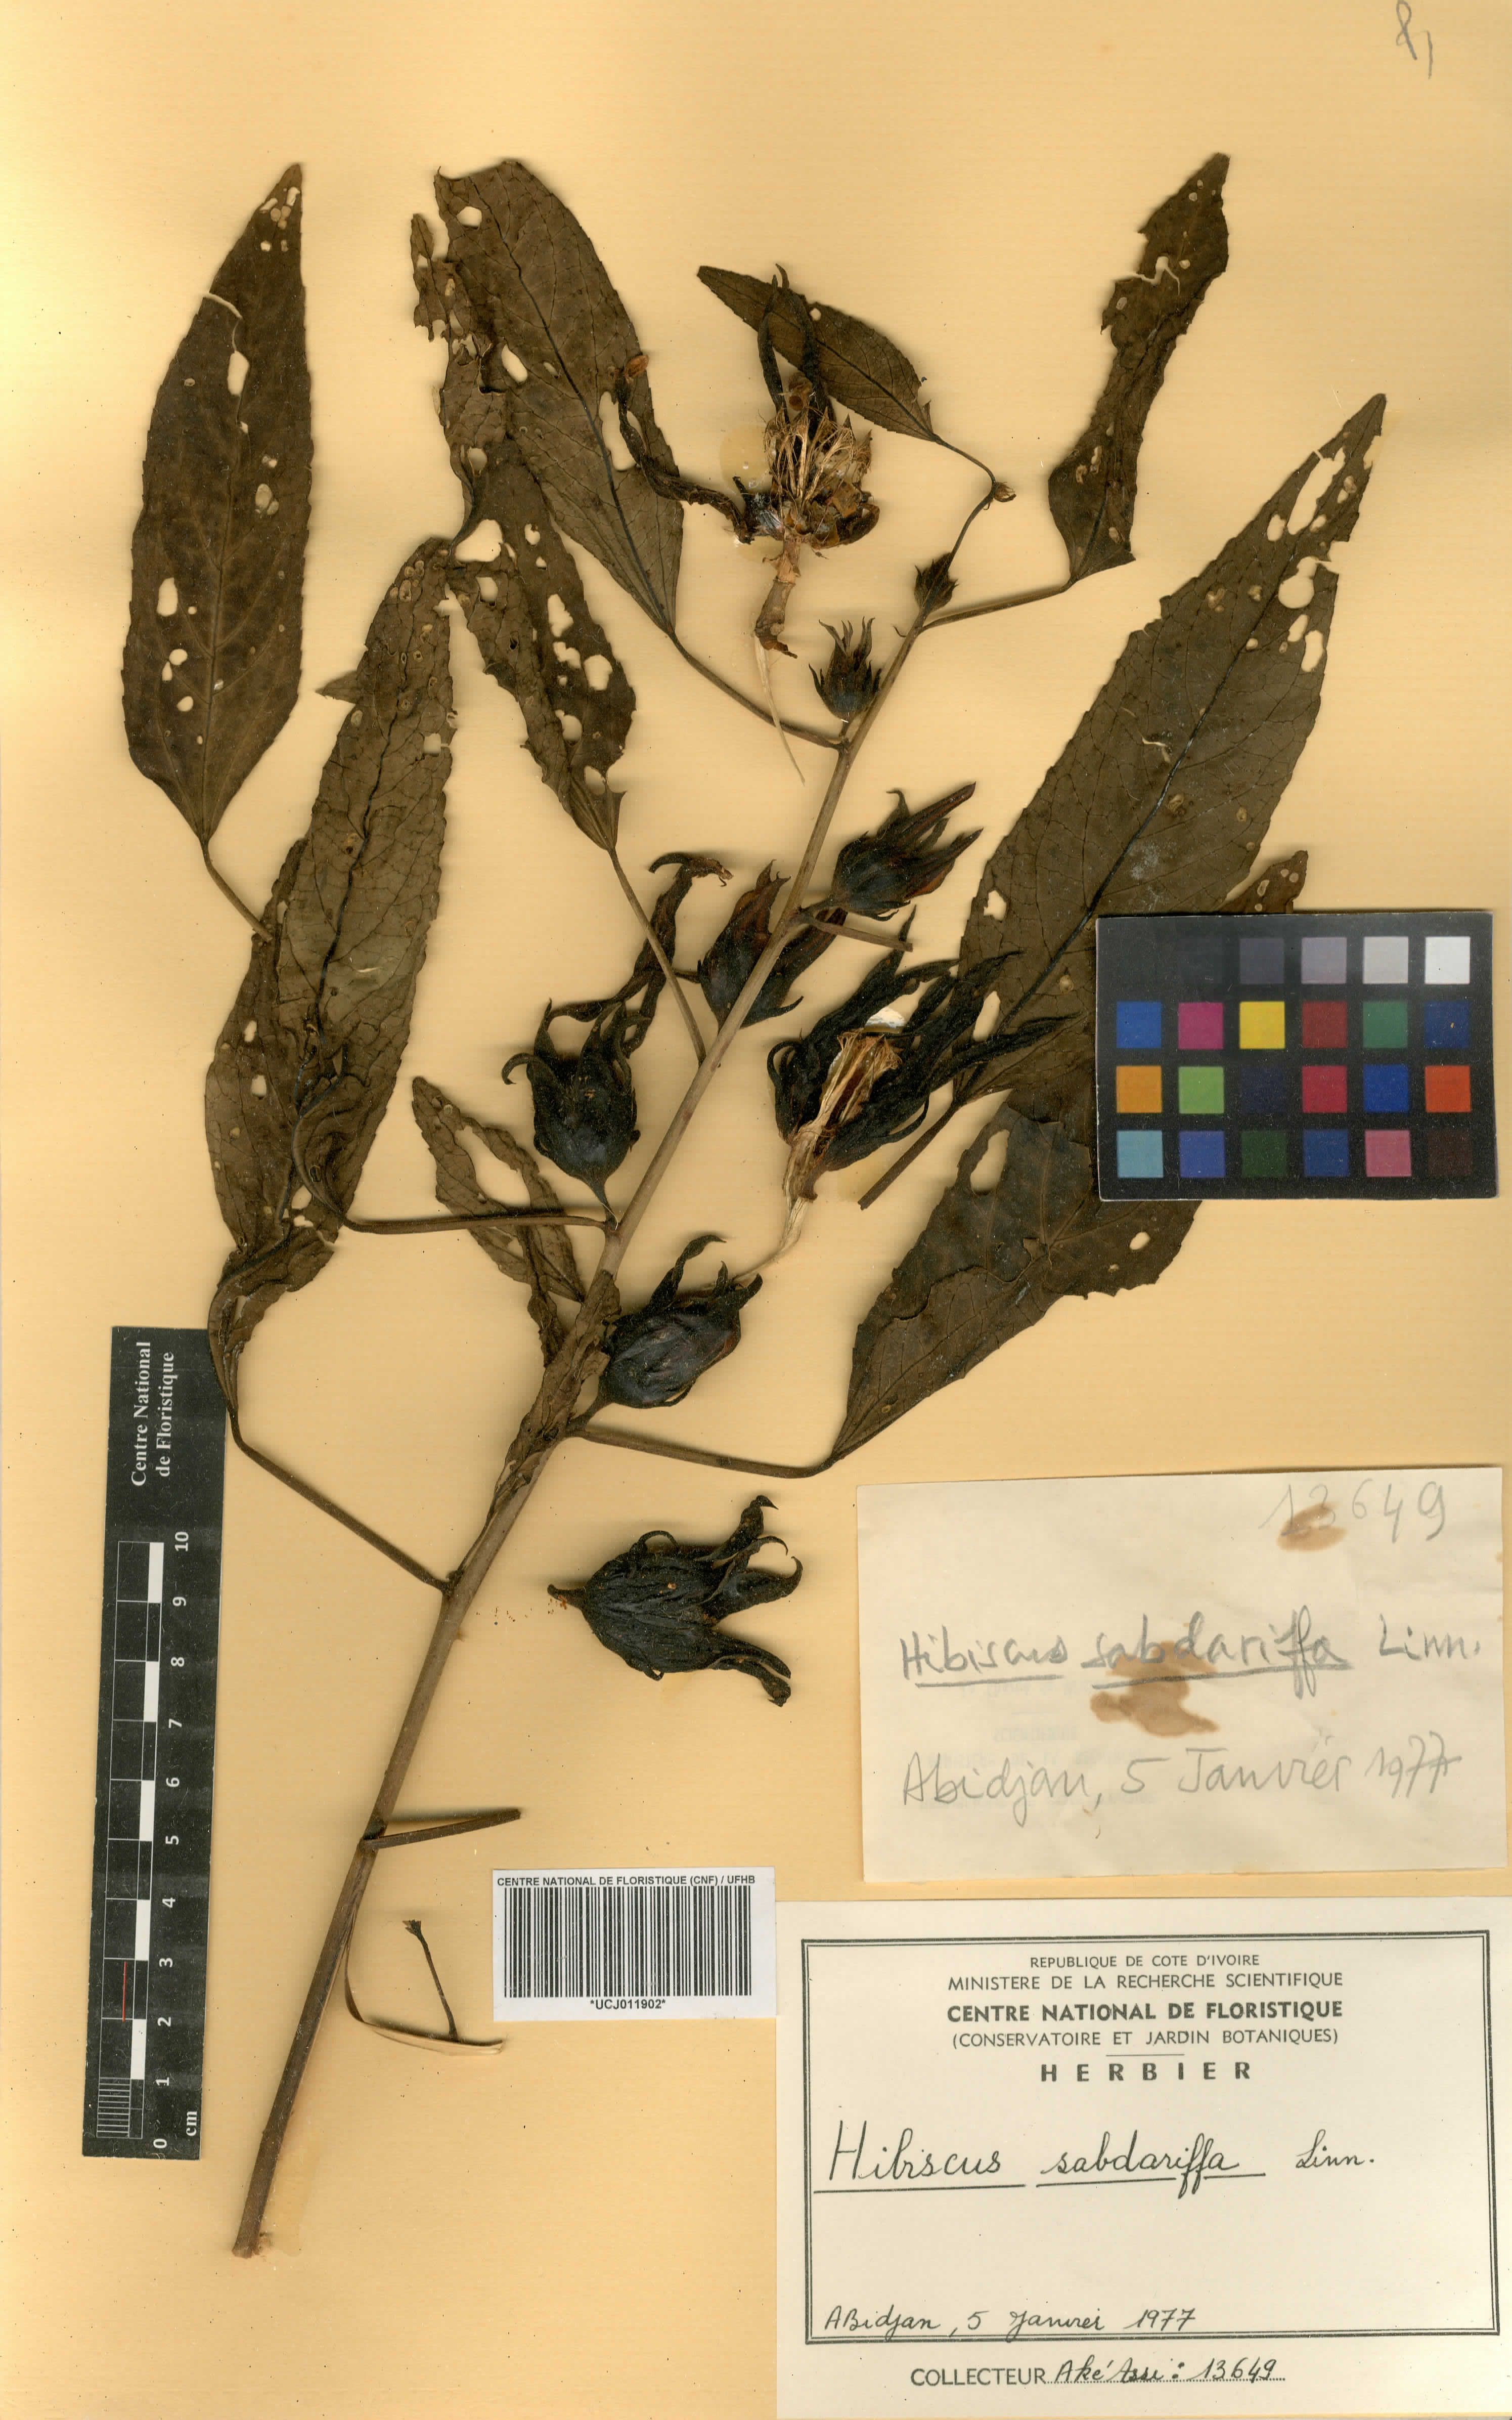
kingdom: Plantae
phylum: Tracheophyta
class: Magnoliopsida
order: Malvales
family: Malvaceae
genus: Hibiscus
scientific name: Hibiscus sabdariffa
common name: Roselle
